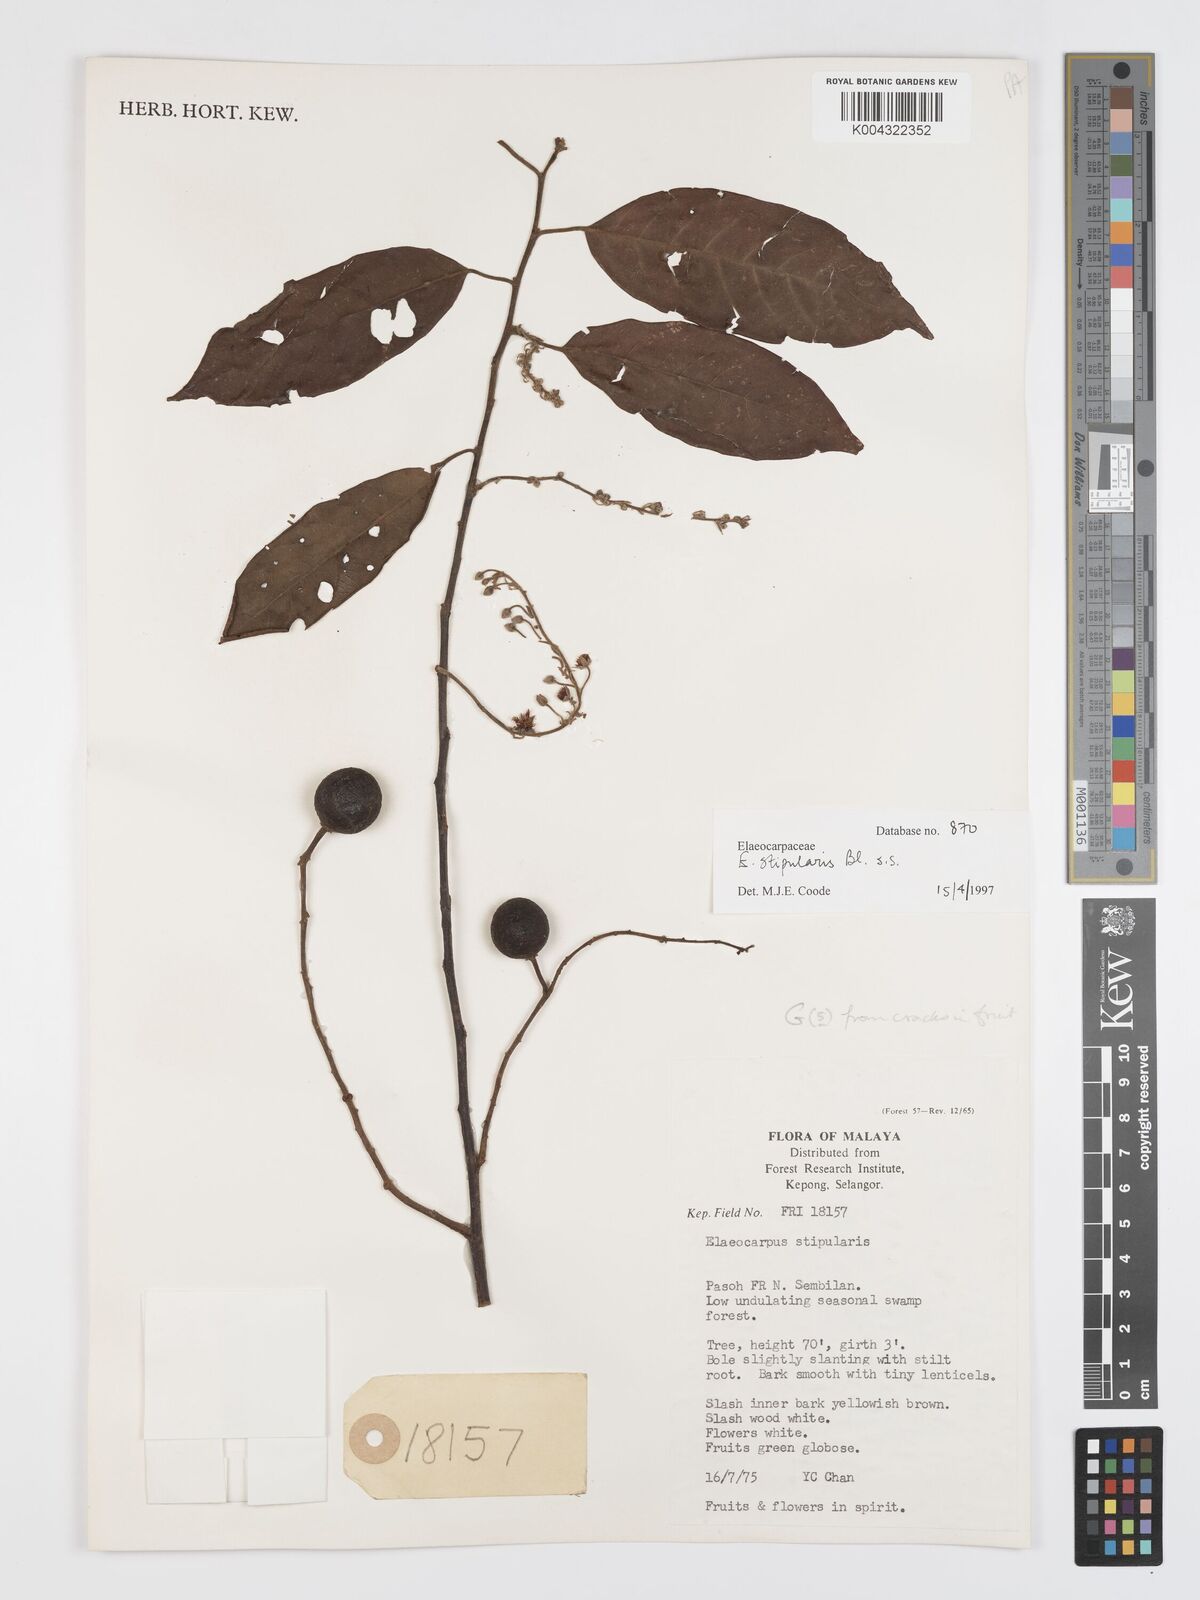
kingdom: Plantae
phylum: Tracheophyta
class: Magnoliopsida
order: Oxalidales
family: Elaeocarpaceae
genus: Elaeocarpus
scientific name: Elaeocarpus stipularis
